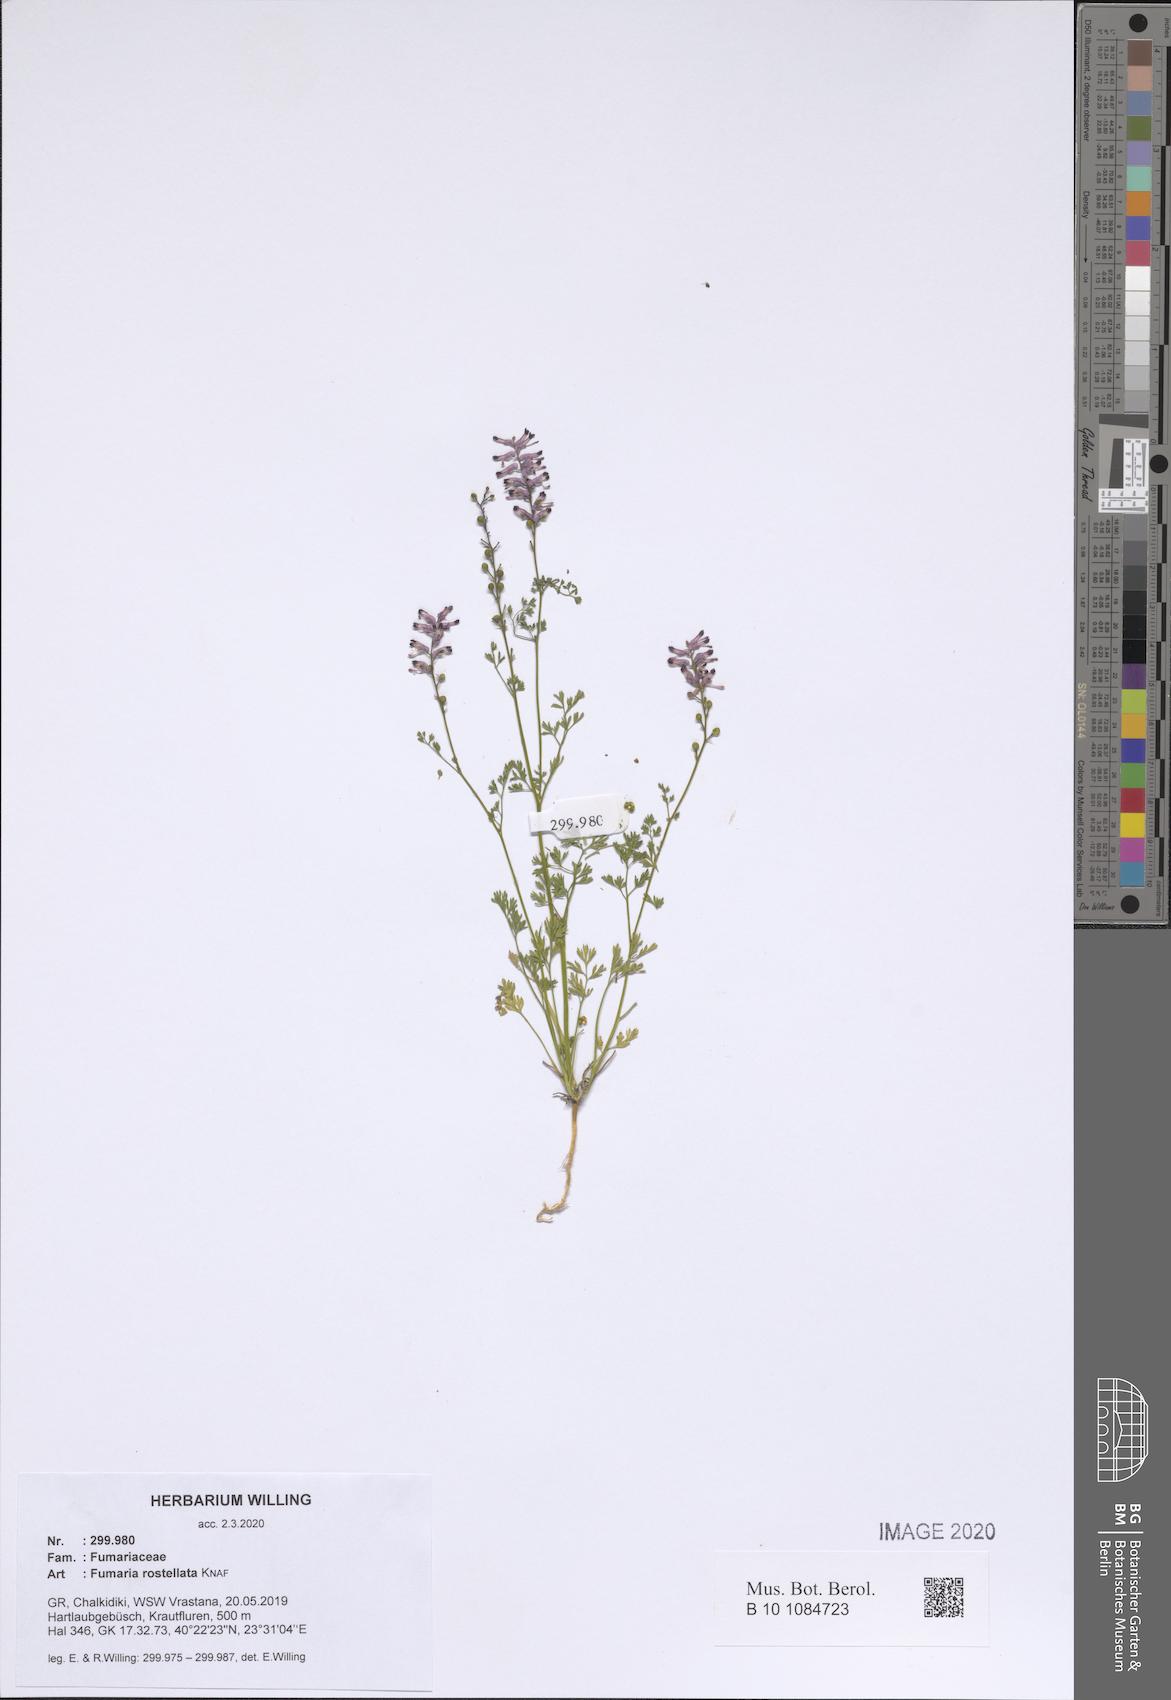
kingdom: Plantae
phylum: Tracheophyta
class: Magnoliopsida
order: Ranunculales
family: Papaveraceae
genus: Fumaria
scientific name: Fumaria rostellata
